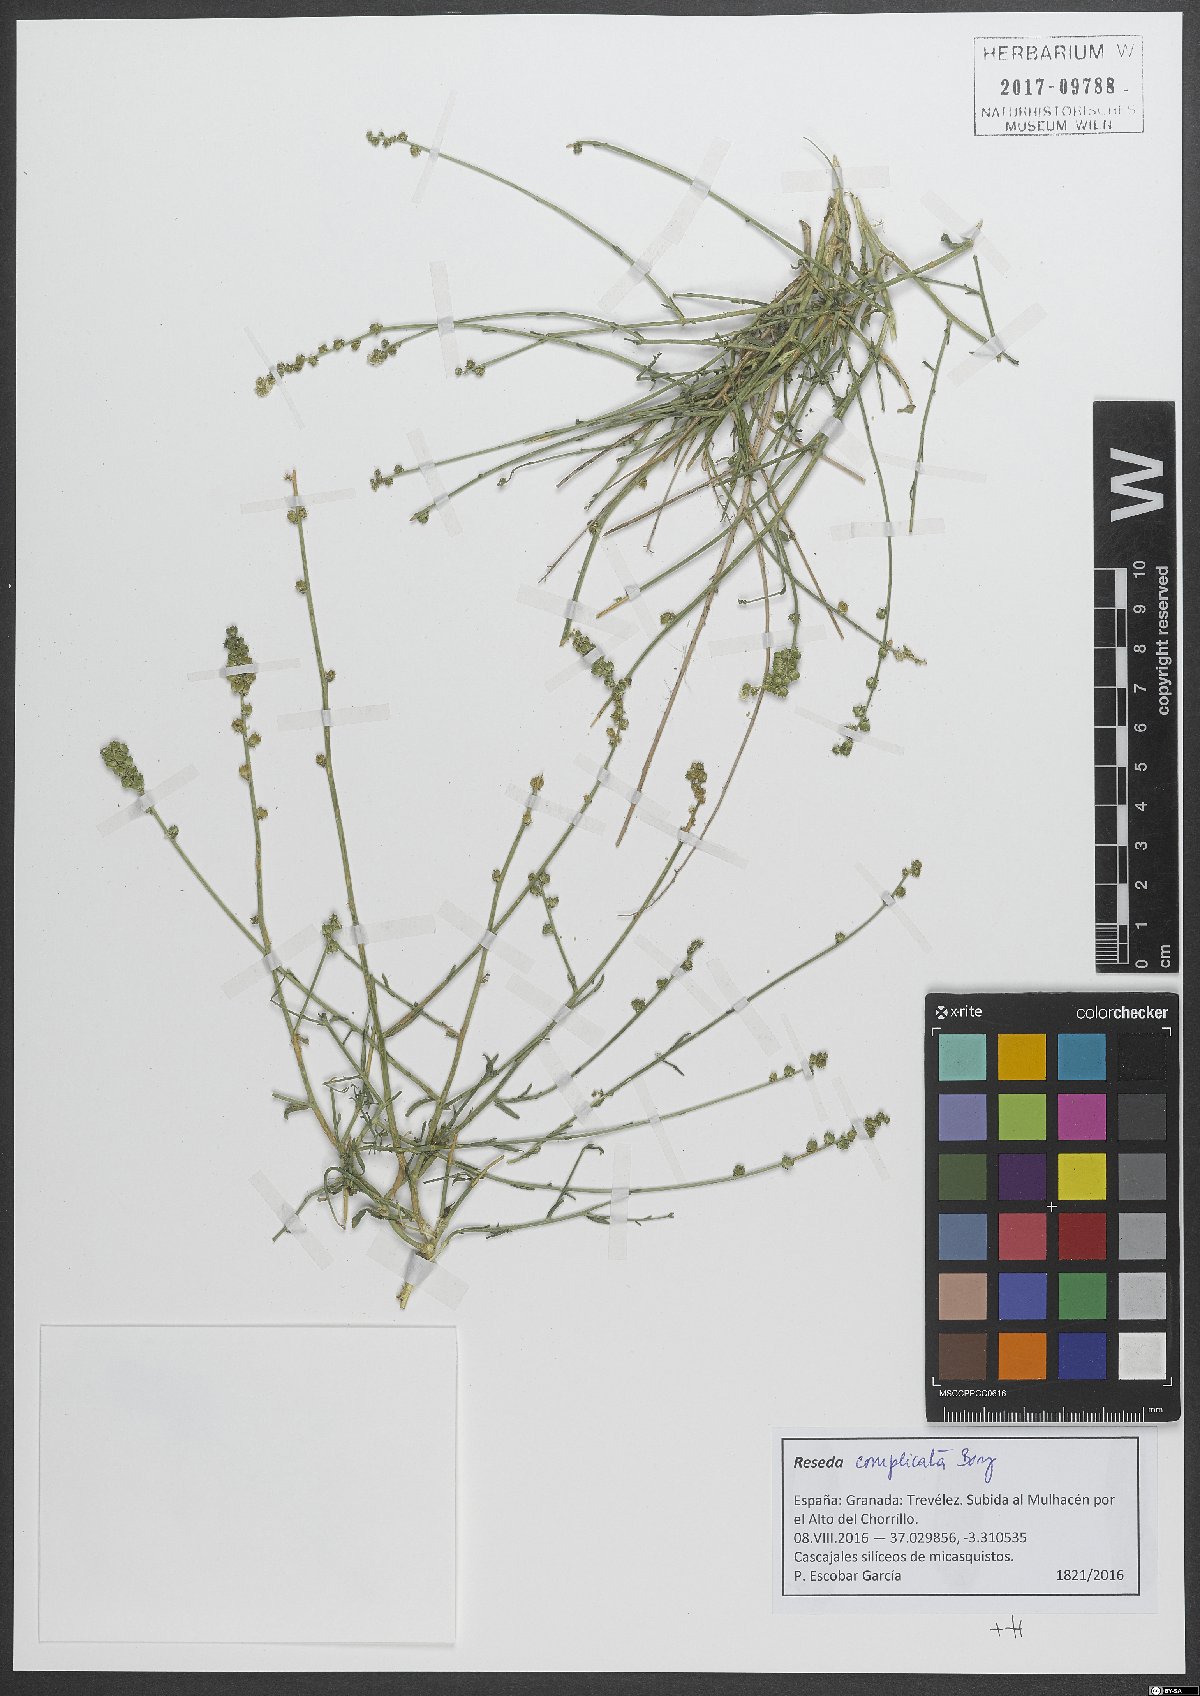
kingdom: Plantae
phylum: Tracheophyta
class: Magnoliopsida
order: Brassicales
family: Resedaceae
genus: Reseda
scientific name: Reseda complicata
